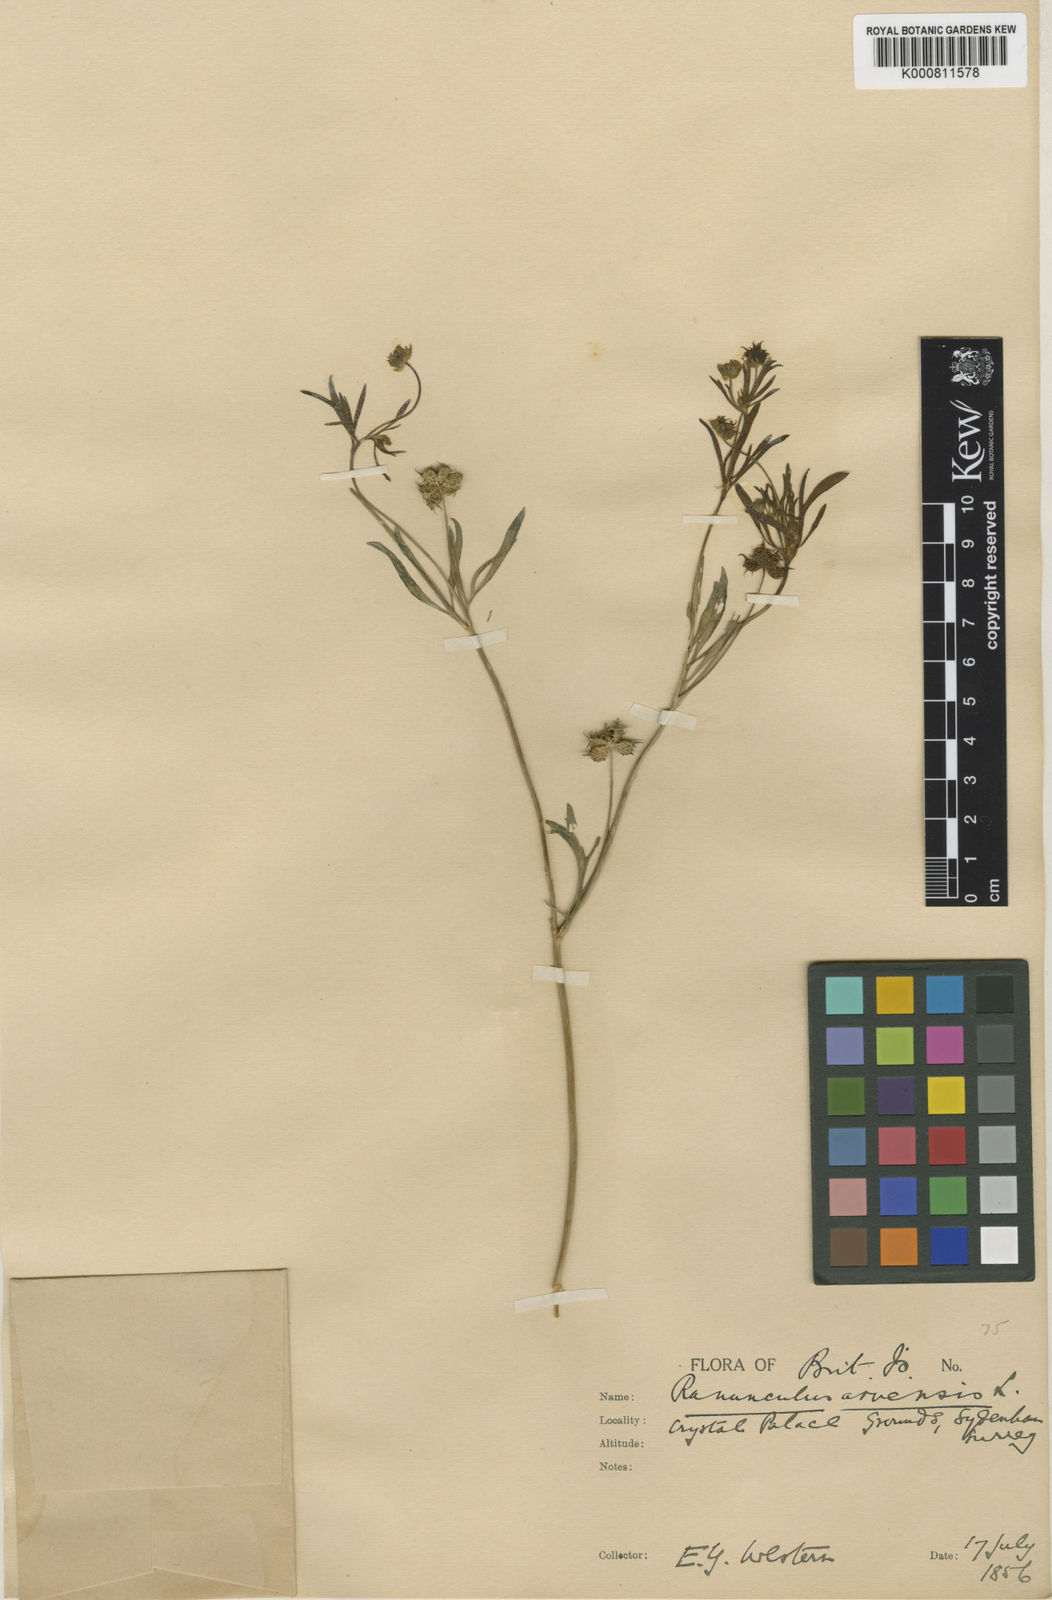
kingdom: Plantae
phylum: Tracheophyta
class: Magnoliopsida
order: Ranunculales
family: Ranunculaceae
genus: Ranunculus
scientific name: Ranunculus arvensis
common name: Corn buttercup
